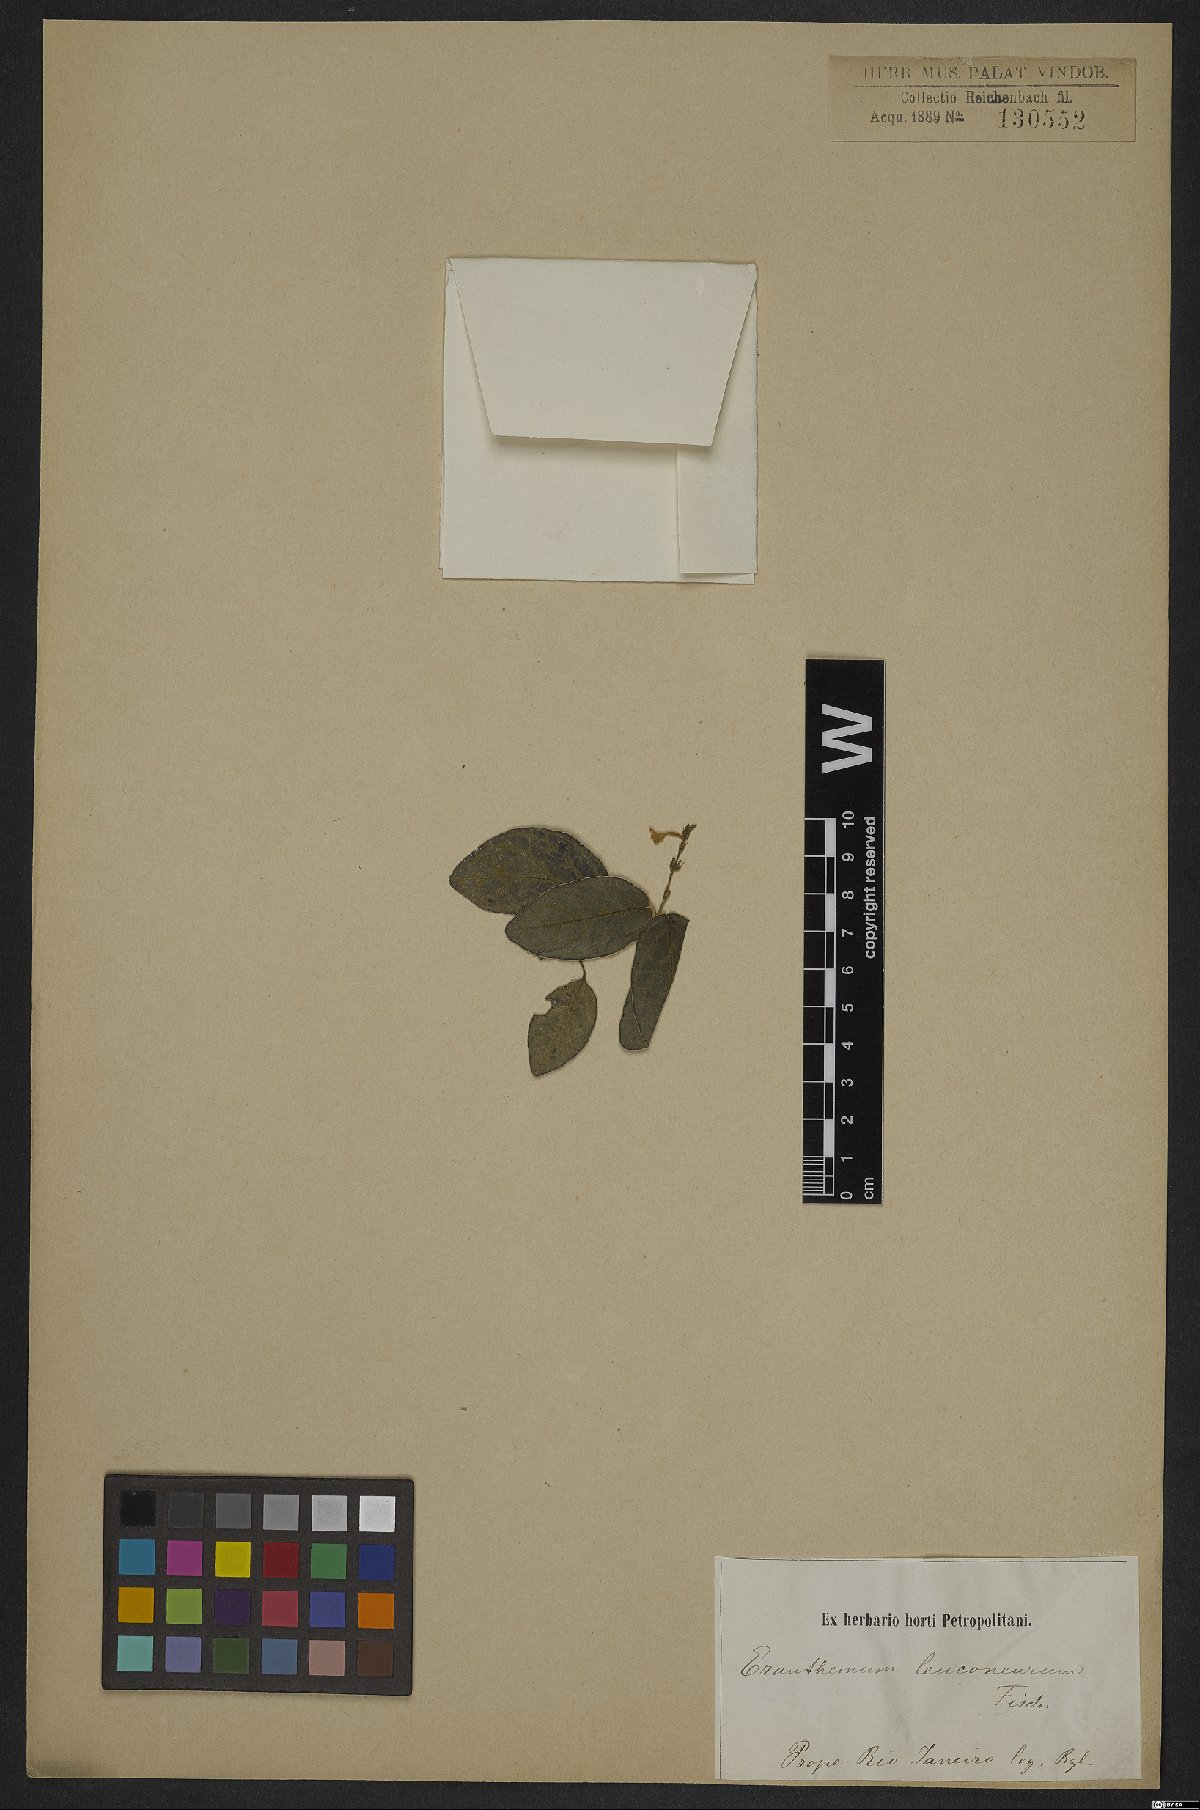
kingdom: Plantae
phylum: Tracheophyta
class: Magnoliopsida
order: Lamiales
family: Acanthaceae
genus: Eranthemum
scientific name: Eranthemum leuconeurum
